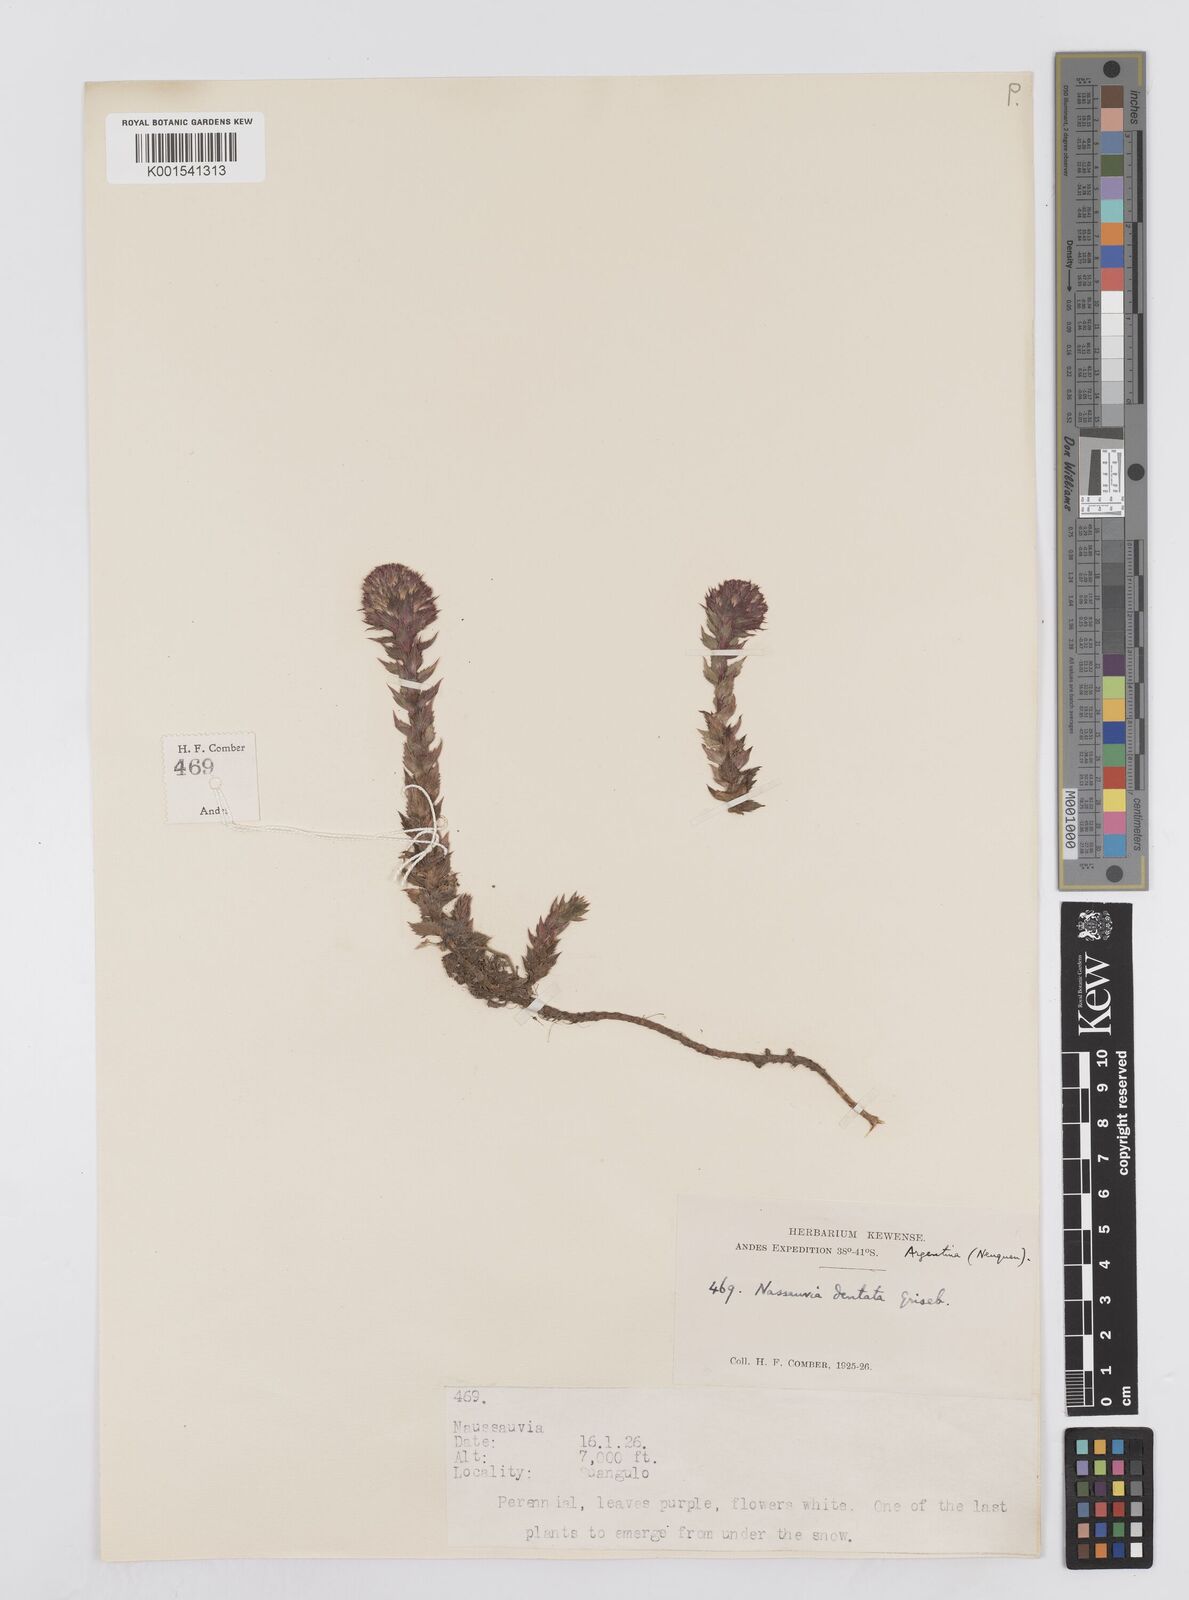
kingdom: Plantae
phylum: Tracheophyta
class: Magnoliopsida
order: Asterales
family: Asteraceae
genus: Nassauvia
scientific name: Nassauvia dentata
